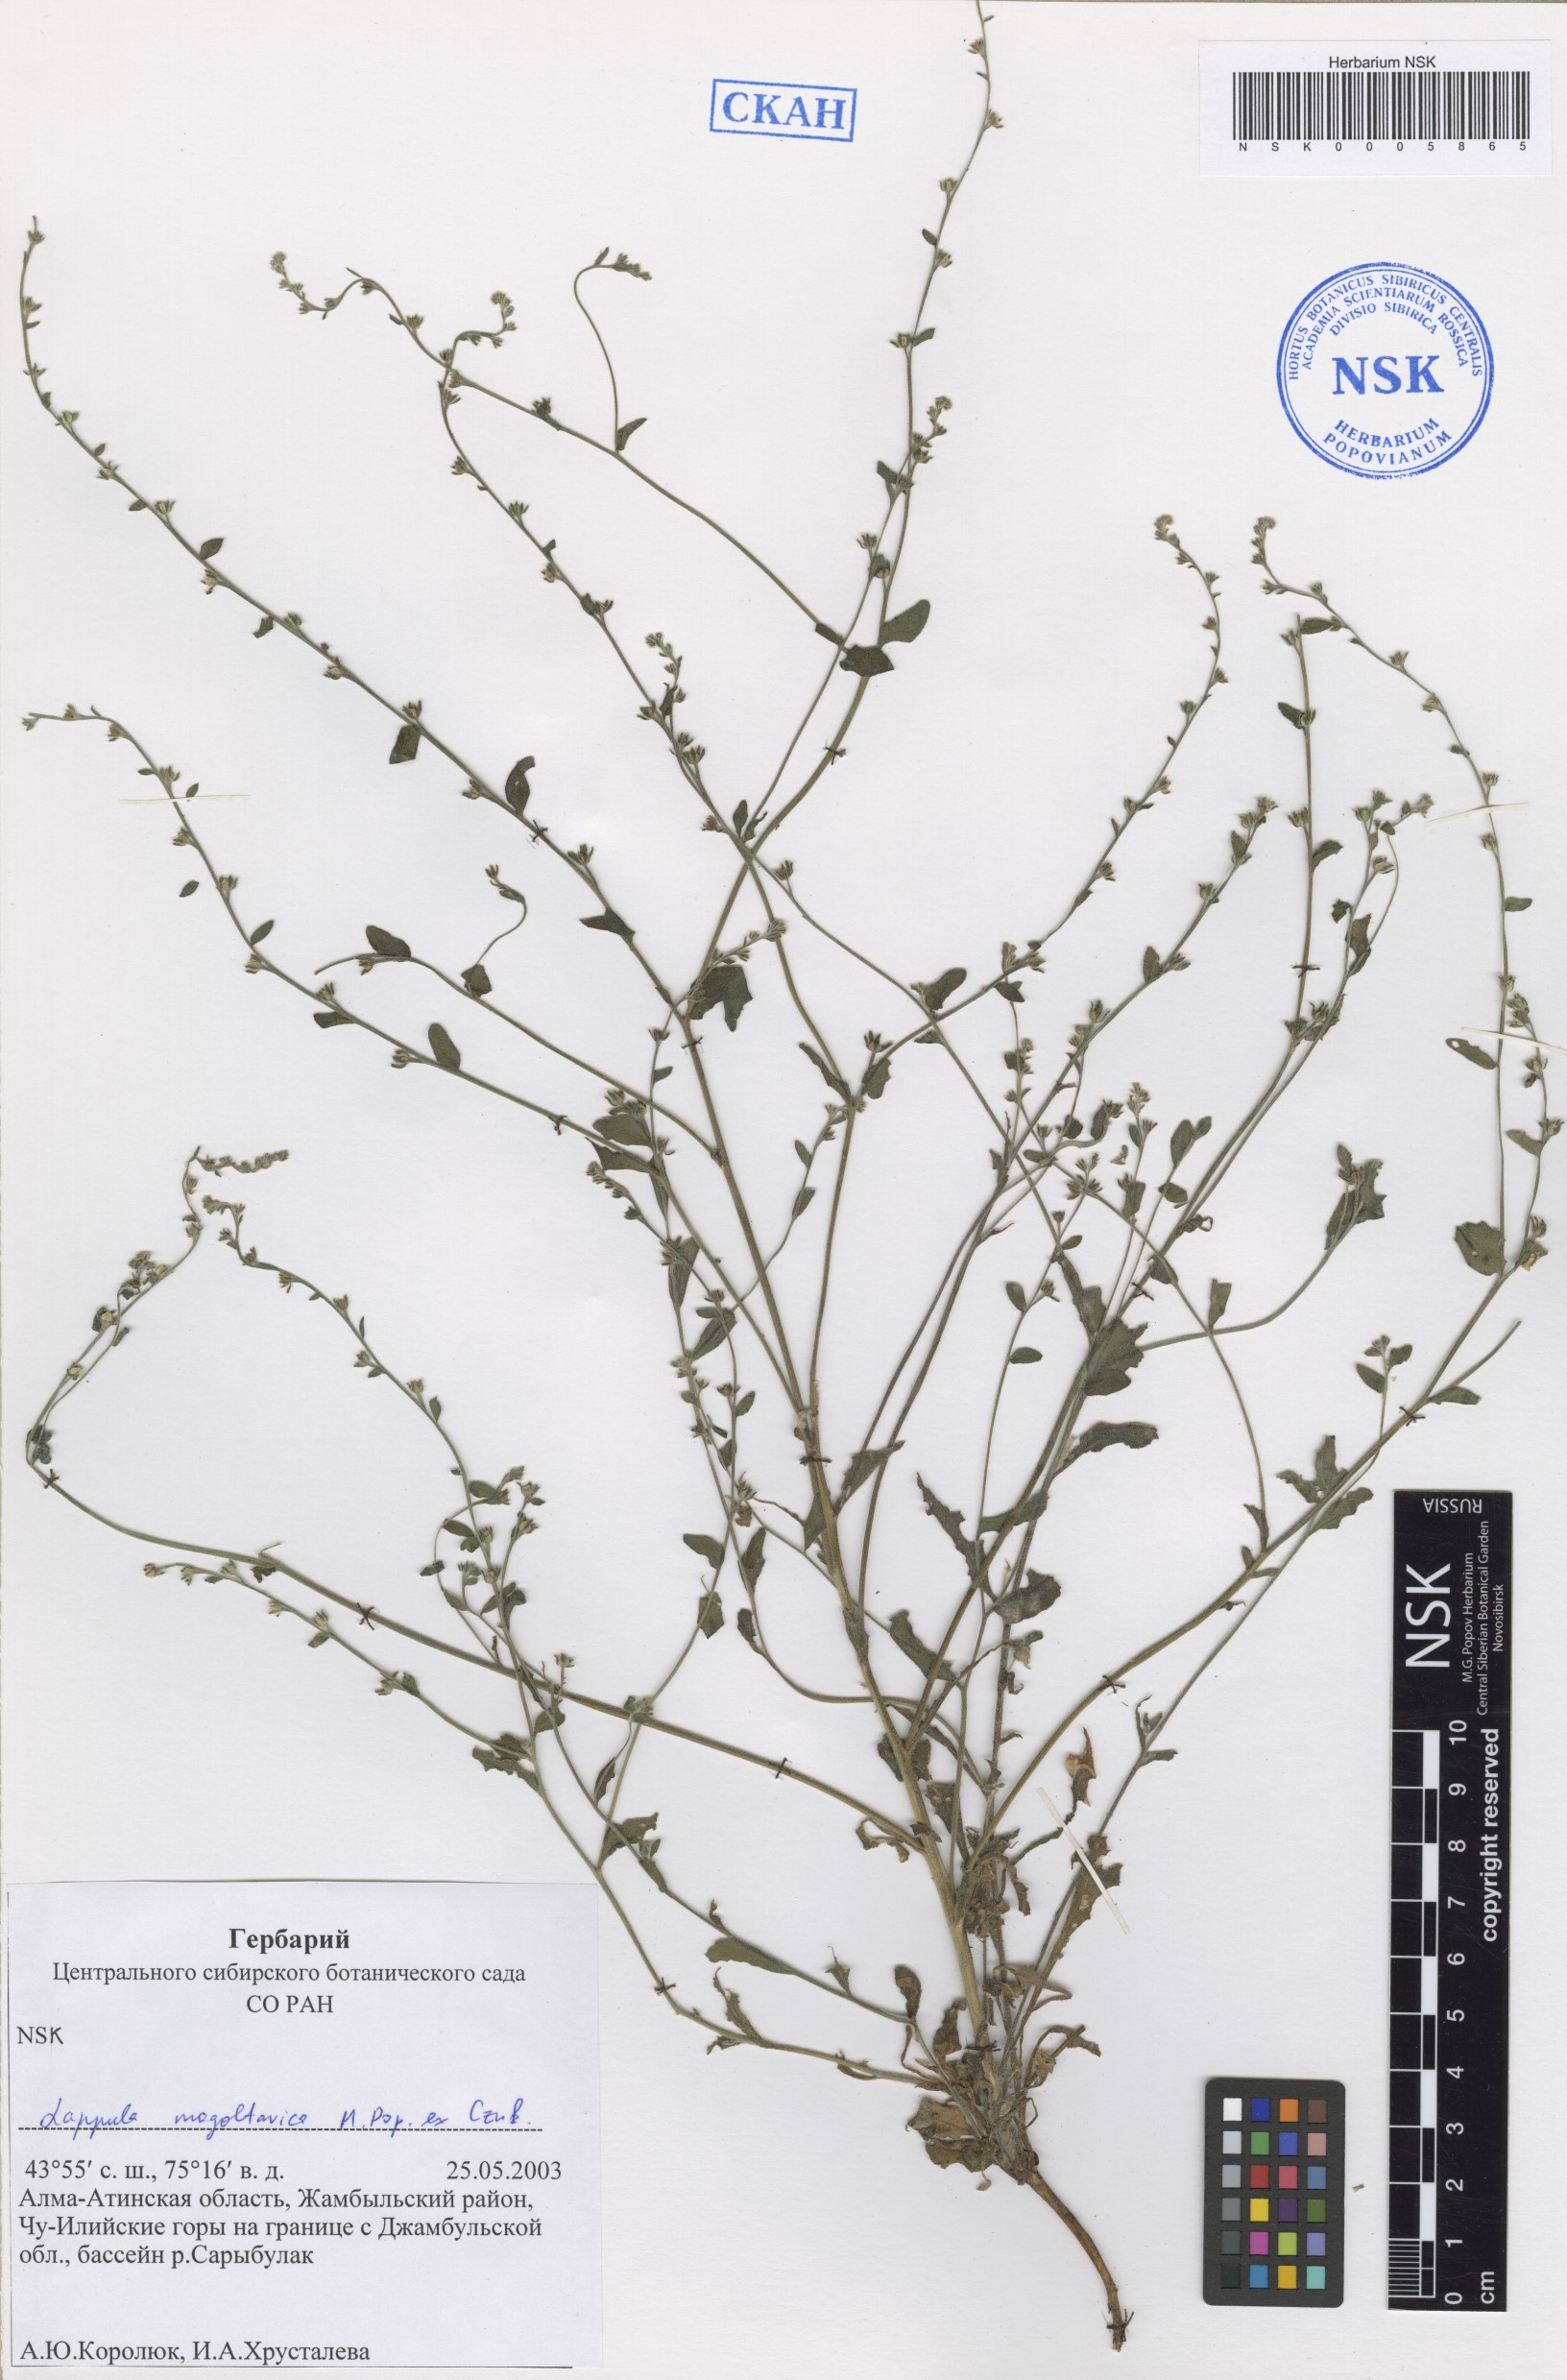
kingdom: Plantae
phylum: Tracheophyta
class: Magnoliopsida
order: Boraginales
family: Boraginaceae
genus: Lappula
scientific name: Lappula mogoltavica
